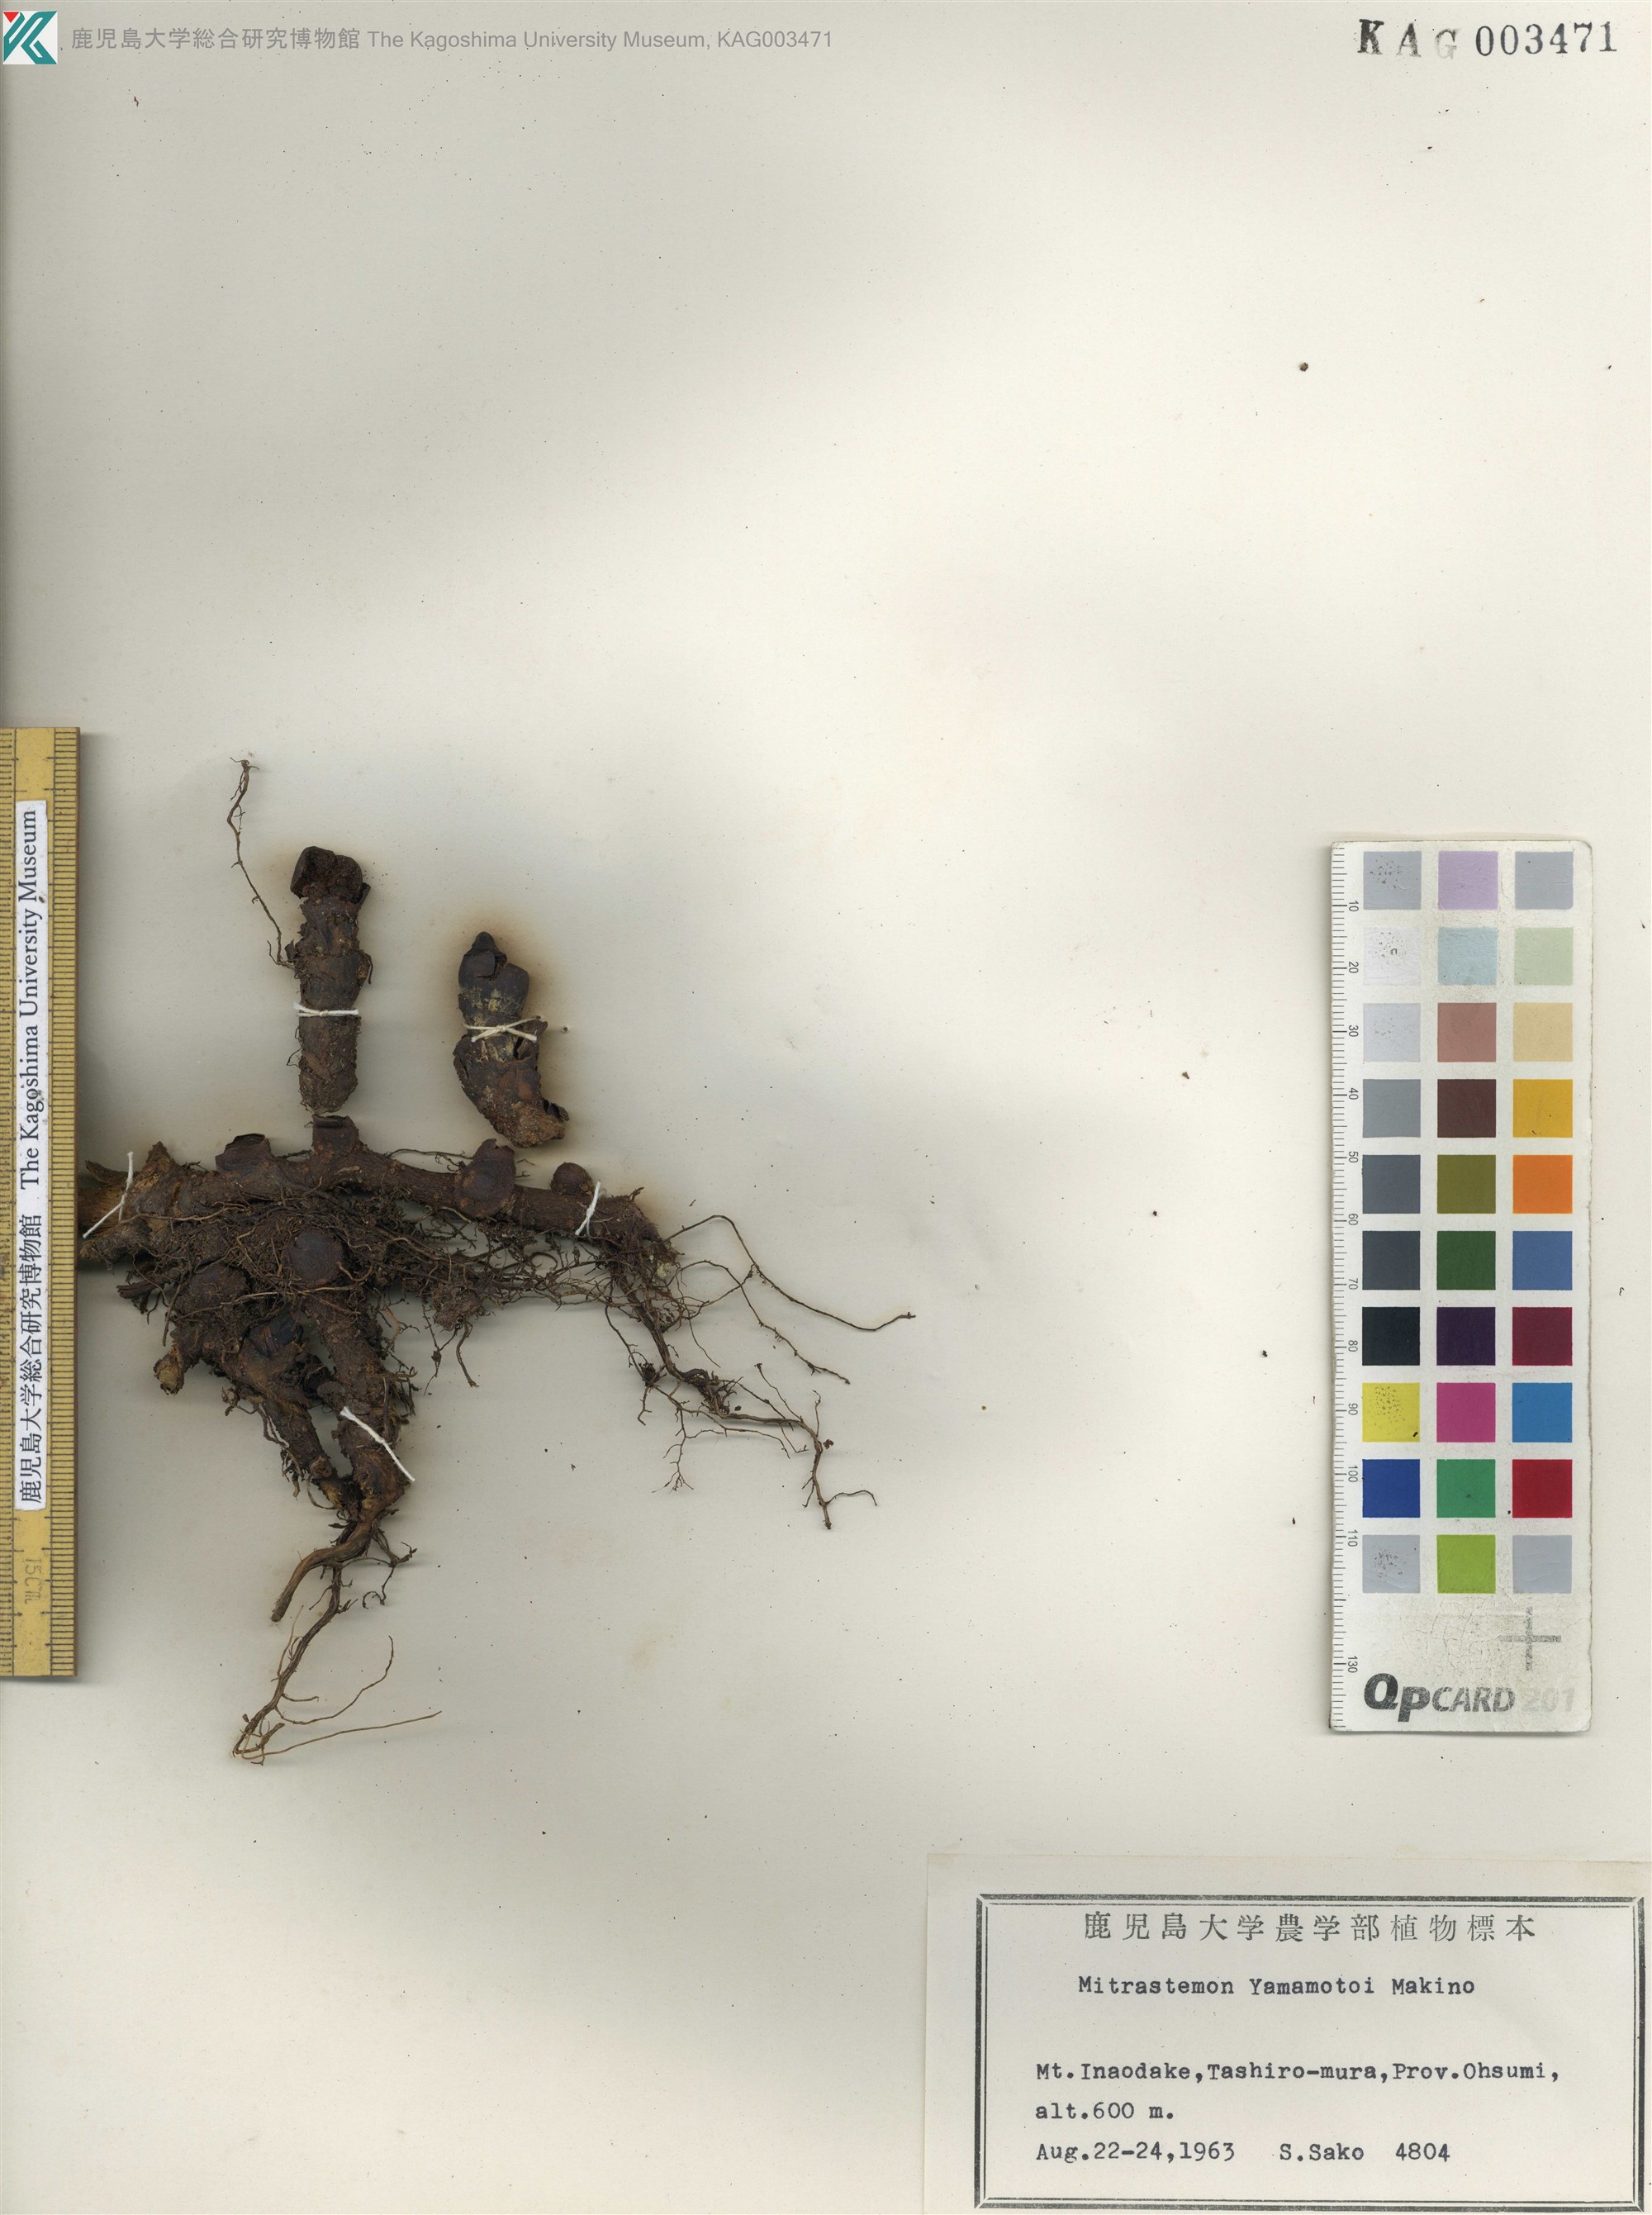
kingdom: Plantae
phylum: Tracheophyta
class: Magnoliopsida
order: Ericales
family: Mitrastemonaceae
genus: Mitrastemon
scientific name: Mitrastemon yamamotoi
